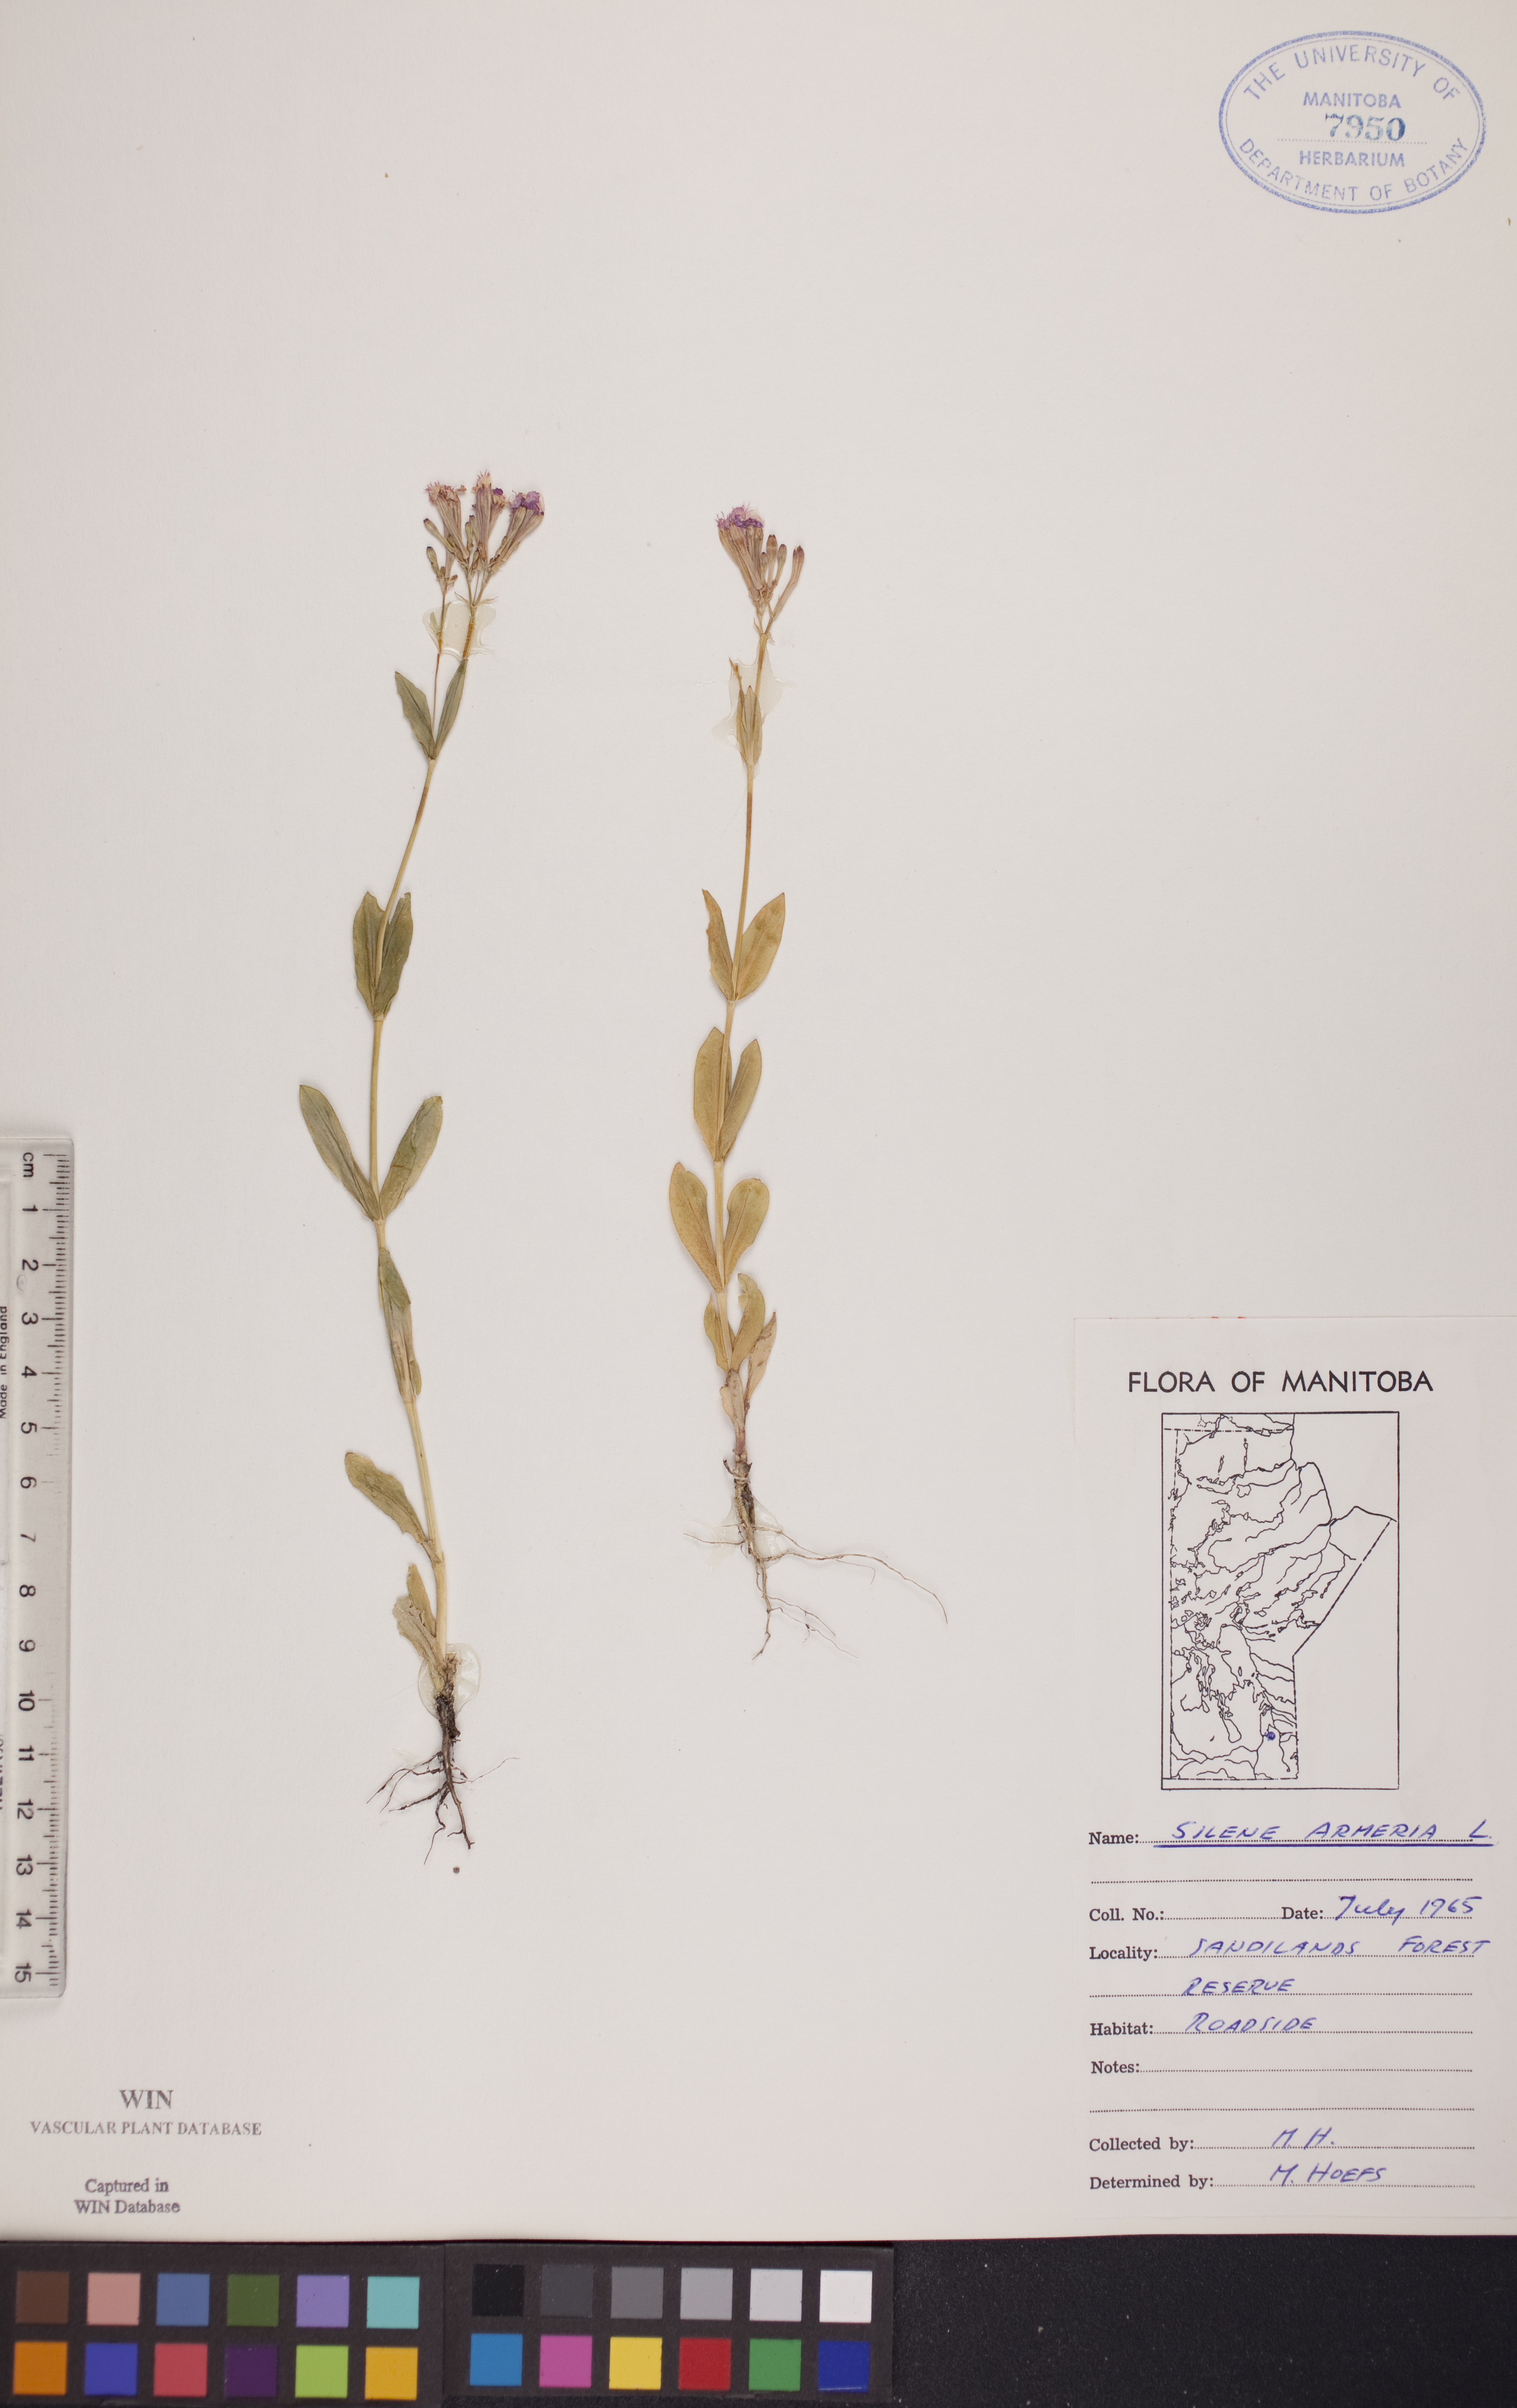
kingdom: Plantae
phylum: Tracheophyta
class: Magnoliopsida
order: Caryophyllales
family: Caryophyllaceae
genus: Atocion
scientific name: Atocion armeria
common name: Sweet william catchfly
